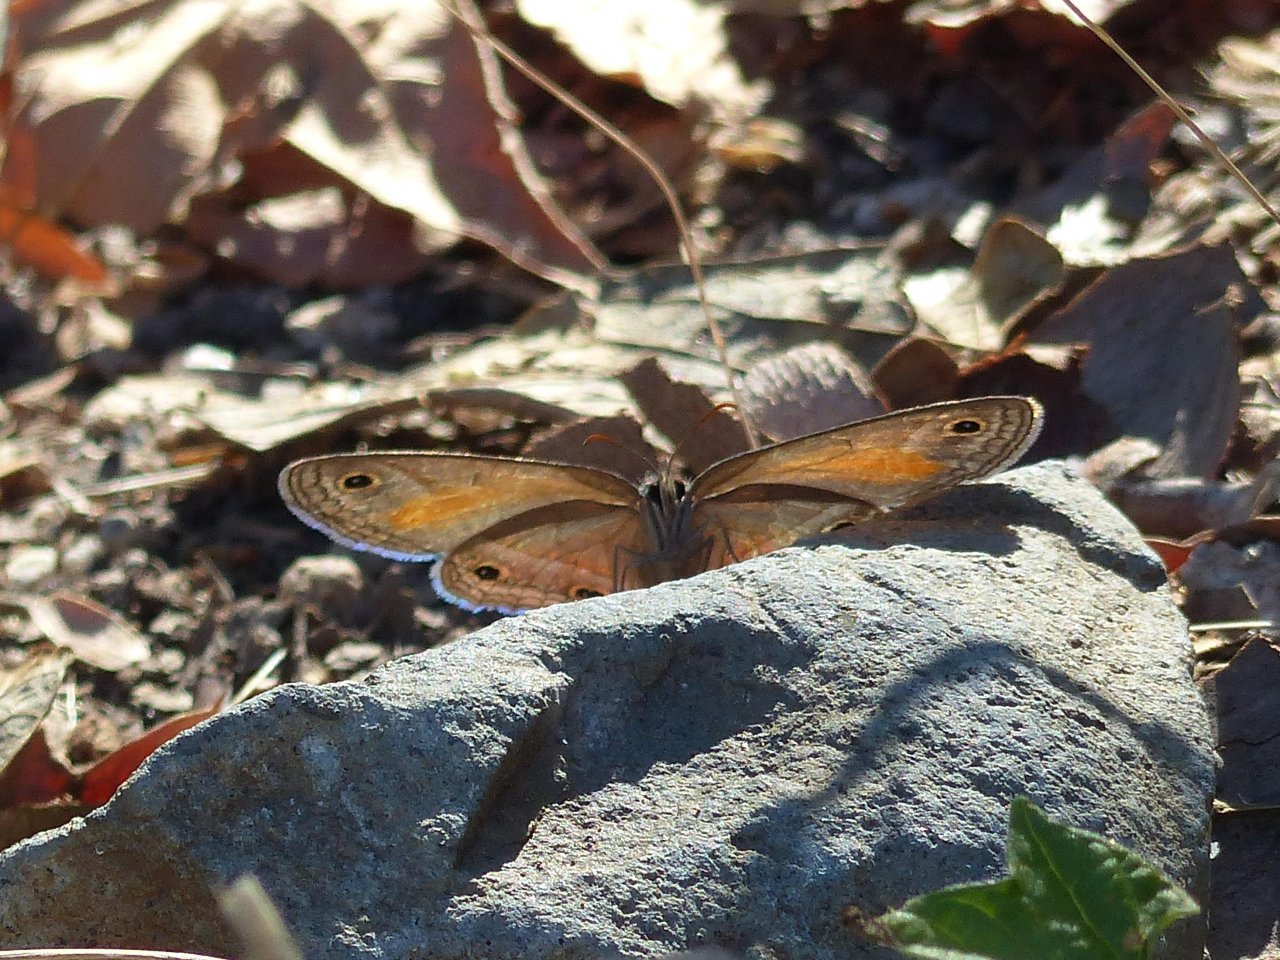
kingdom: Animalia
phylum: Arthropoda
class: Insecta
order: Lepidoptera
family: Nymphalidae
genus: Euptychia
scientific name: Euptychia rubricata
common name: Red Satyr
